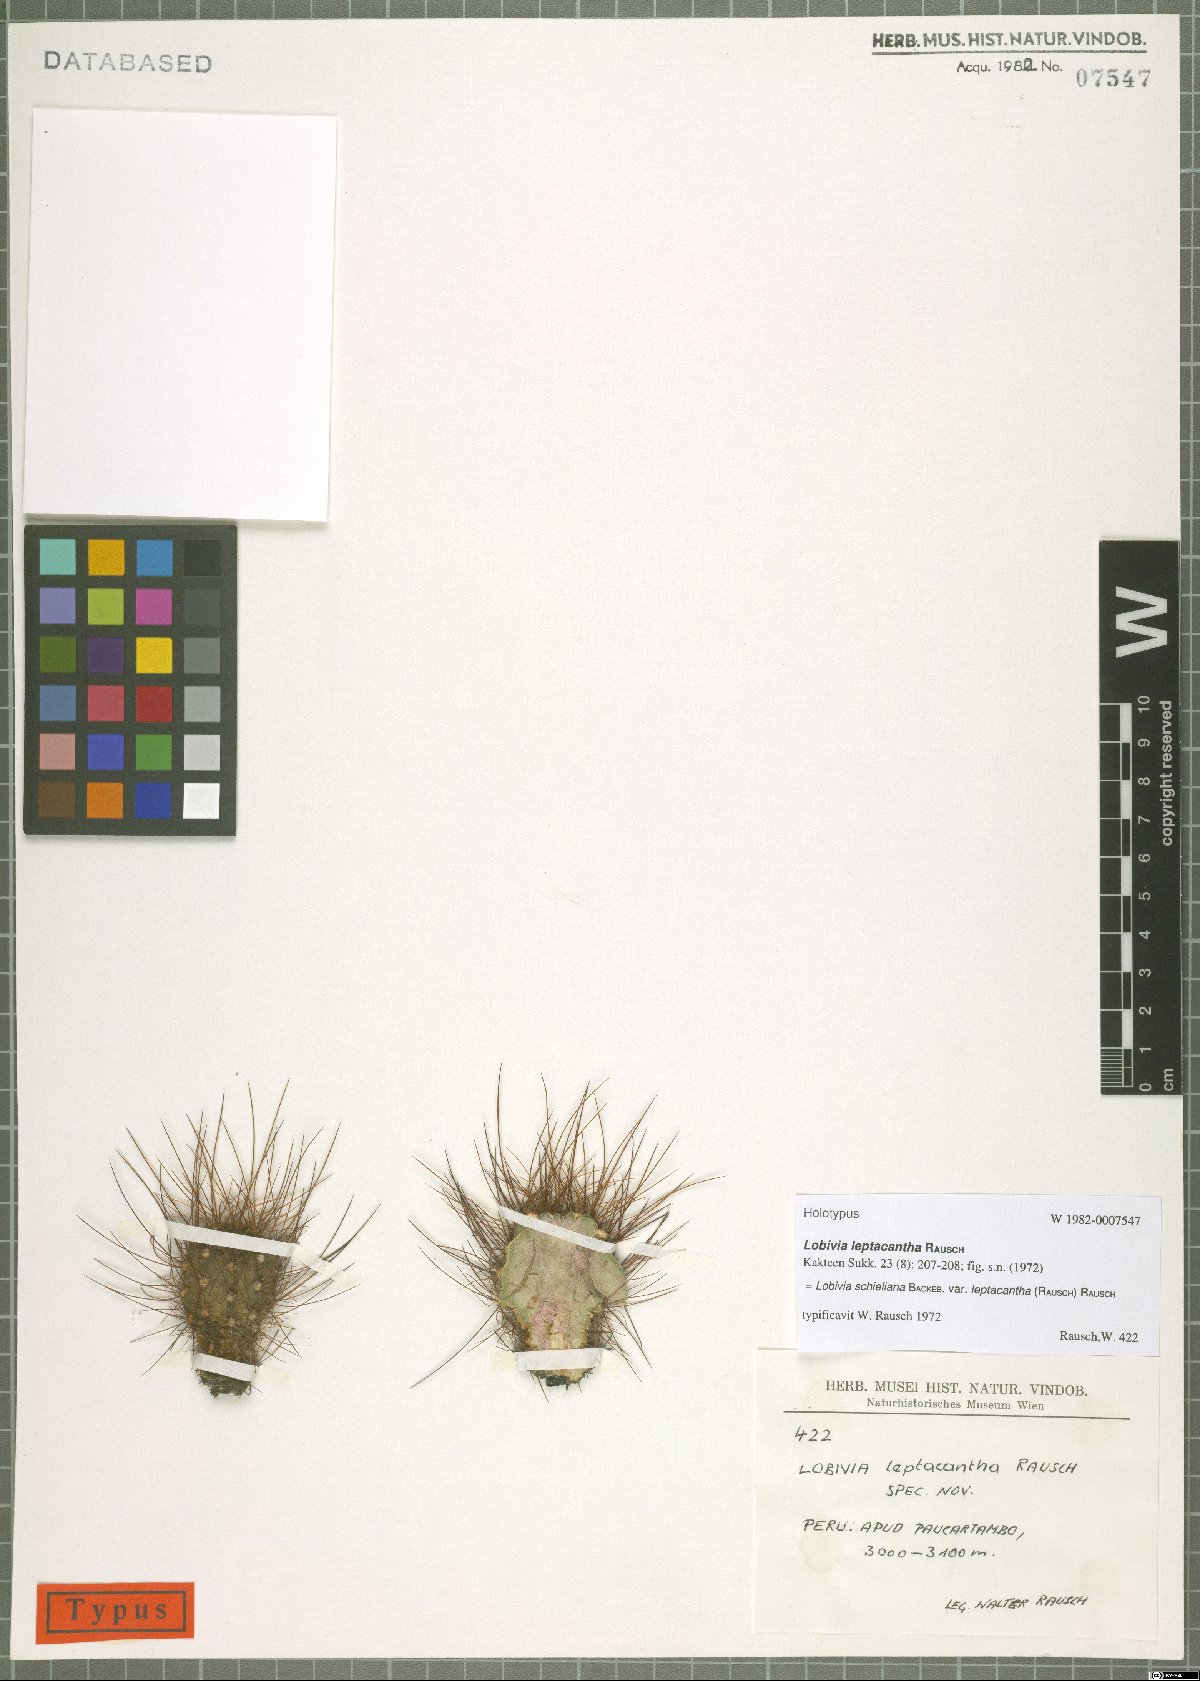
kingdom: Plantae
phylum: Tracheophyta
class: Magnoliopsida
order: Caryophyllales
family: Cactaceae
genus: Lobivia
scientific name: Lobivia schieliana
